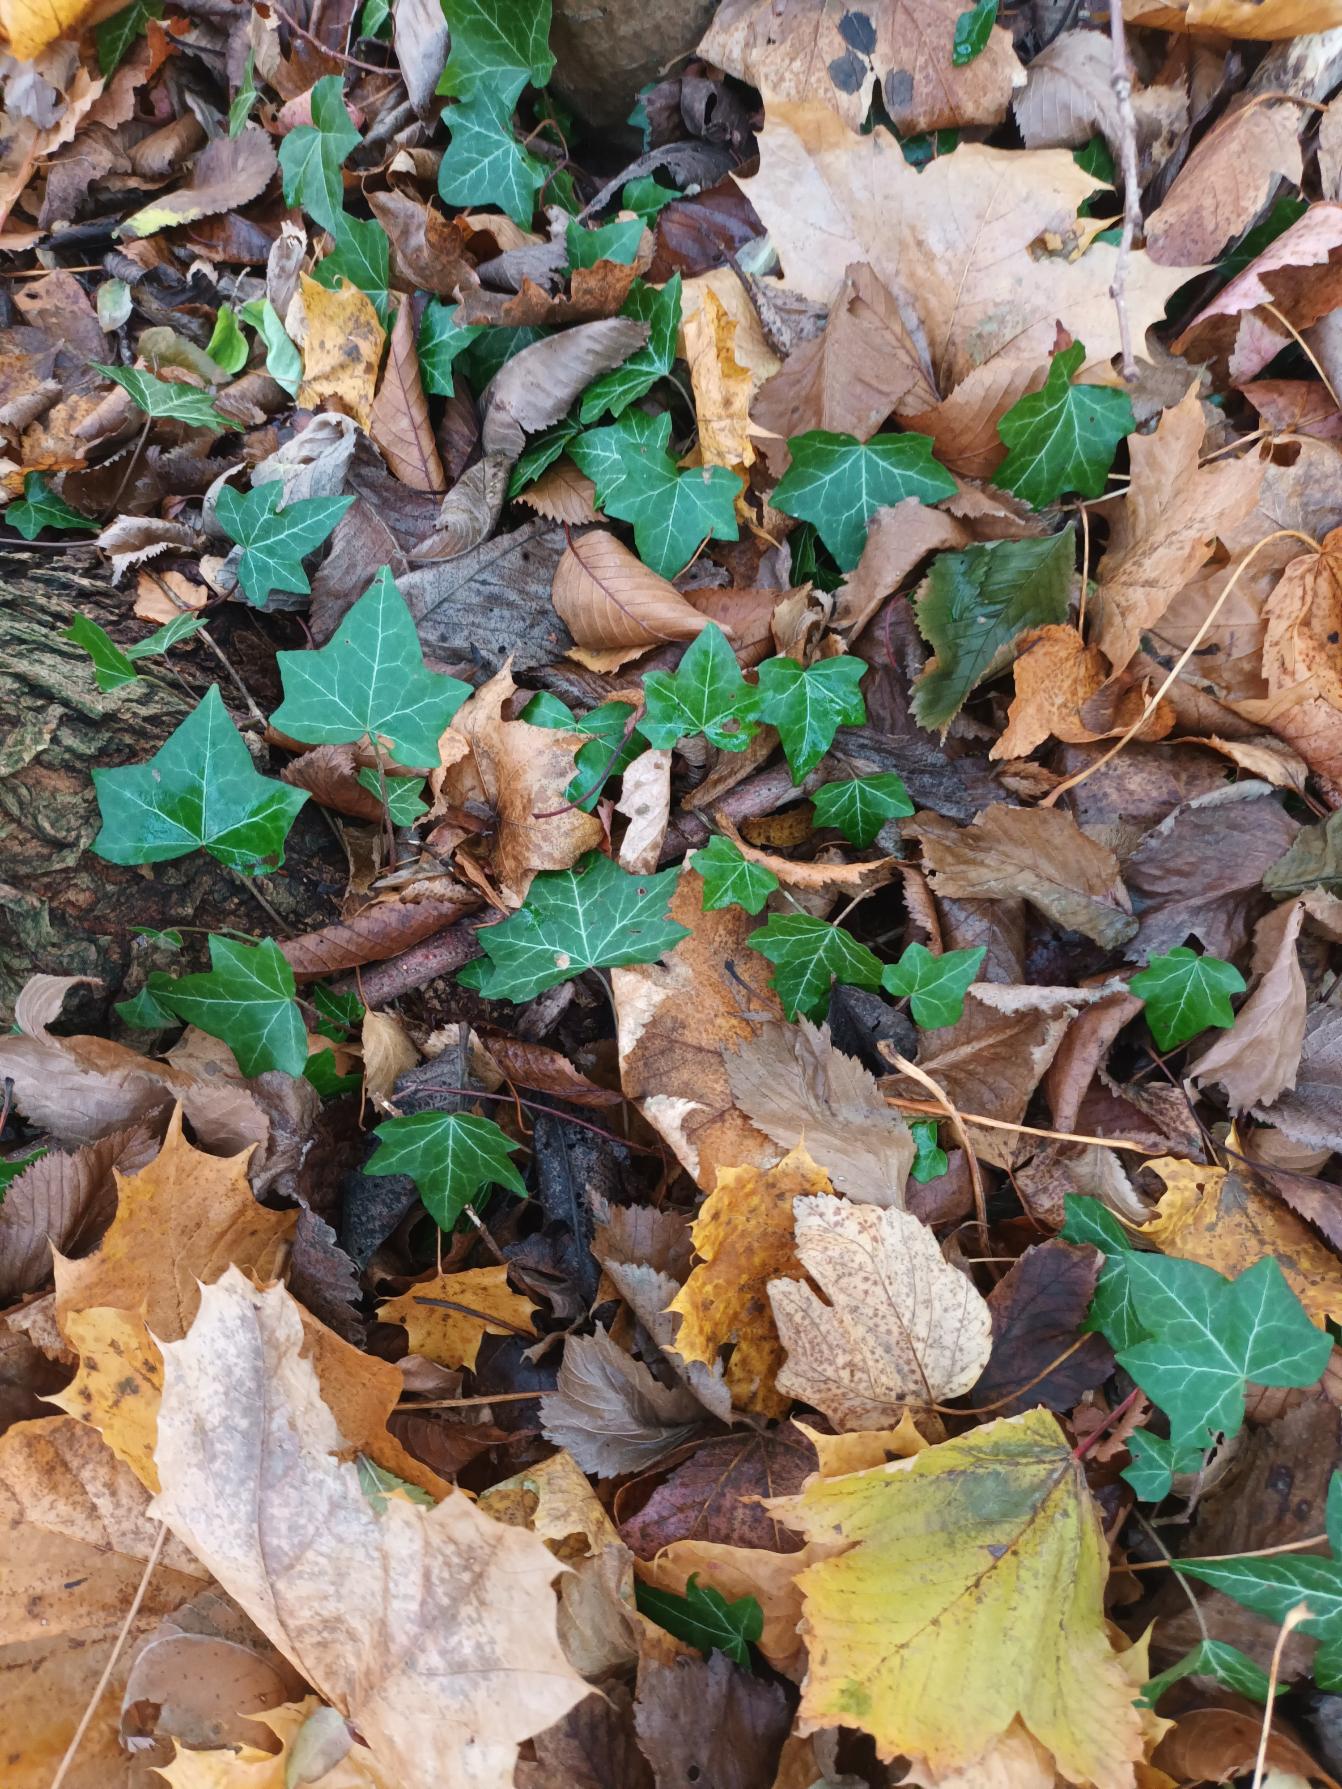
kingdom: Plantae
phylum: Tracheophyta
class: Magnoliopsida
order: Apiales
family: Araliaceae
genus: Hedera
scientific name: Hedera helix
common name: Vedbend
